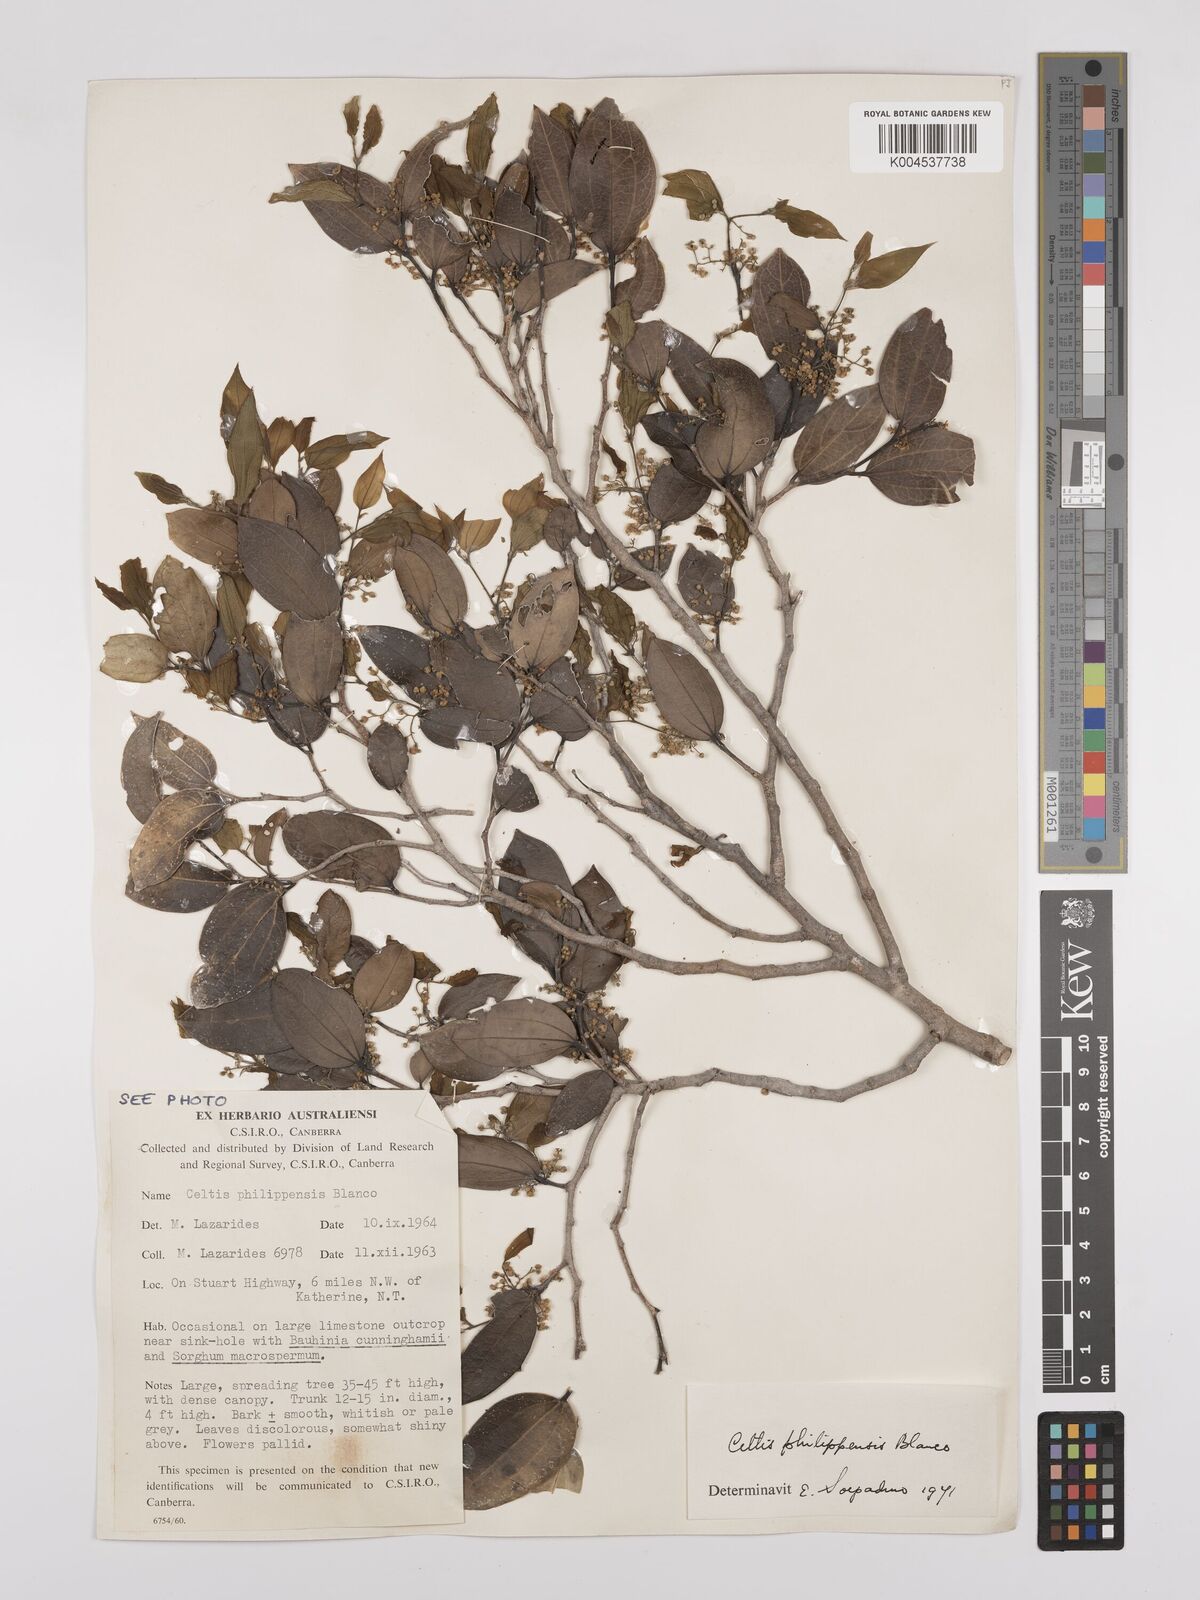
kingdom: Plantae
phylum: Tracheophyta
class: Magnoliopsida
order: Rosales
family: Cannabaceae
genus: Celtis
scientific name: Celtis philippensis
